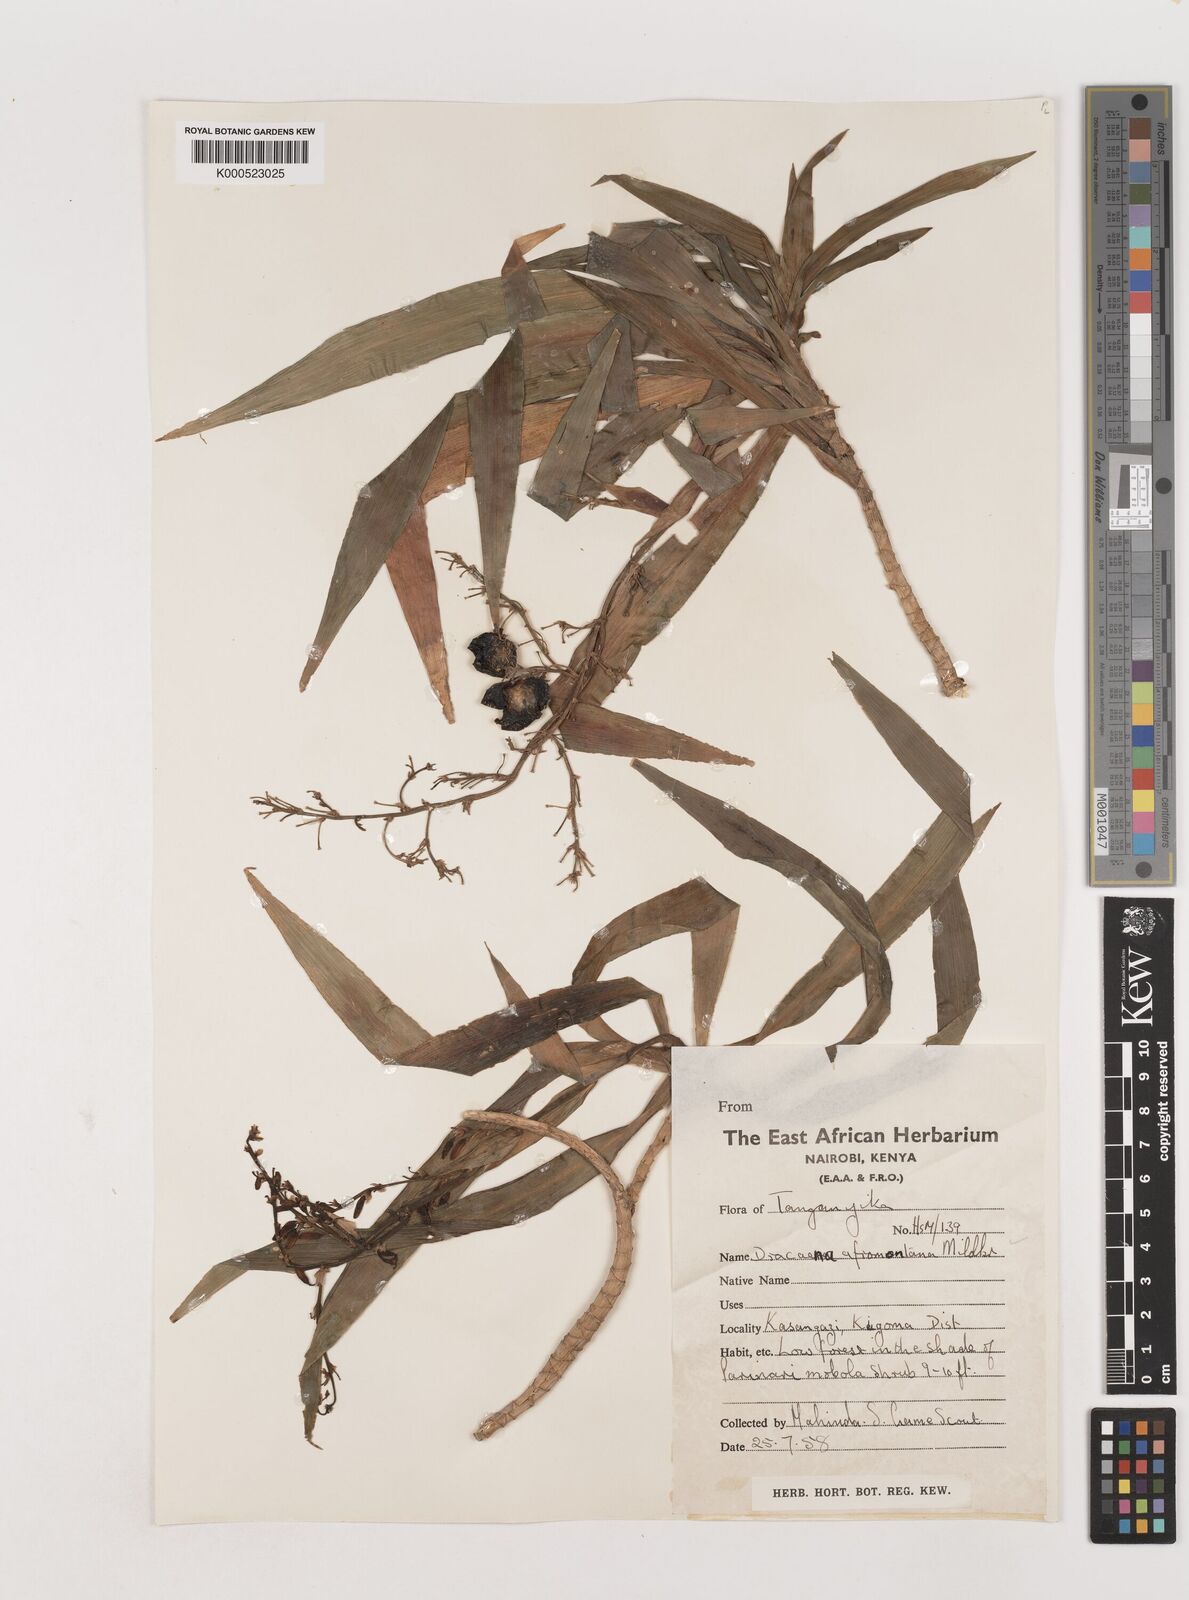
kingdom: Plantae
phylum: Tracheophyta
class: Liliopsida
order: Asparagales
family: Asparagaceae
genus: Dracaena
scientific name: Dracaena afromontana
